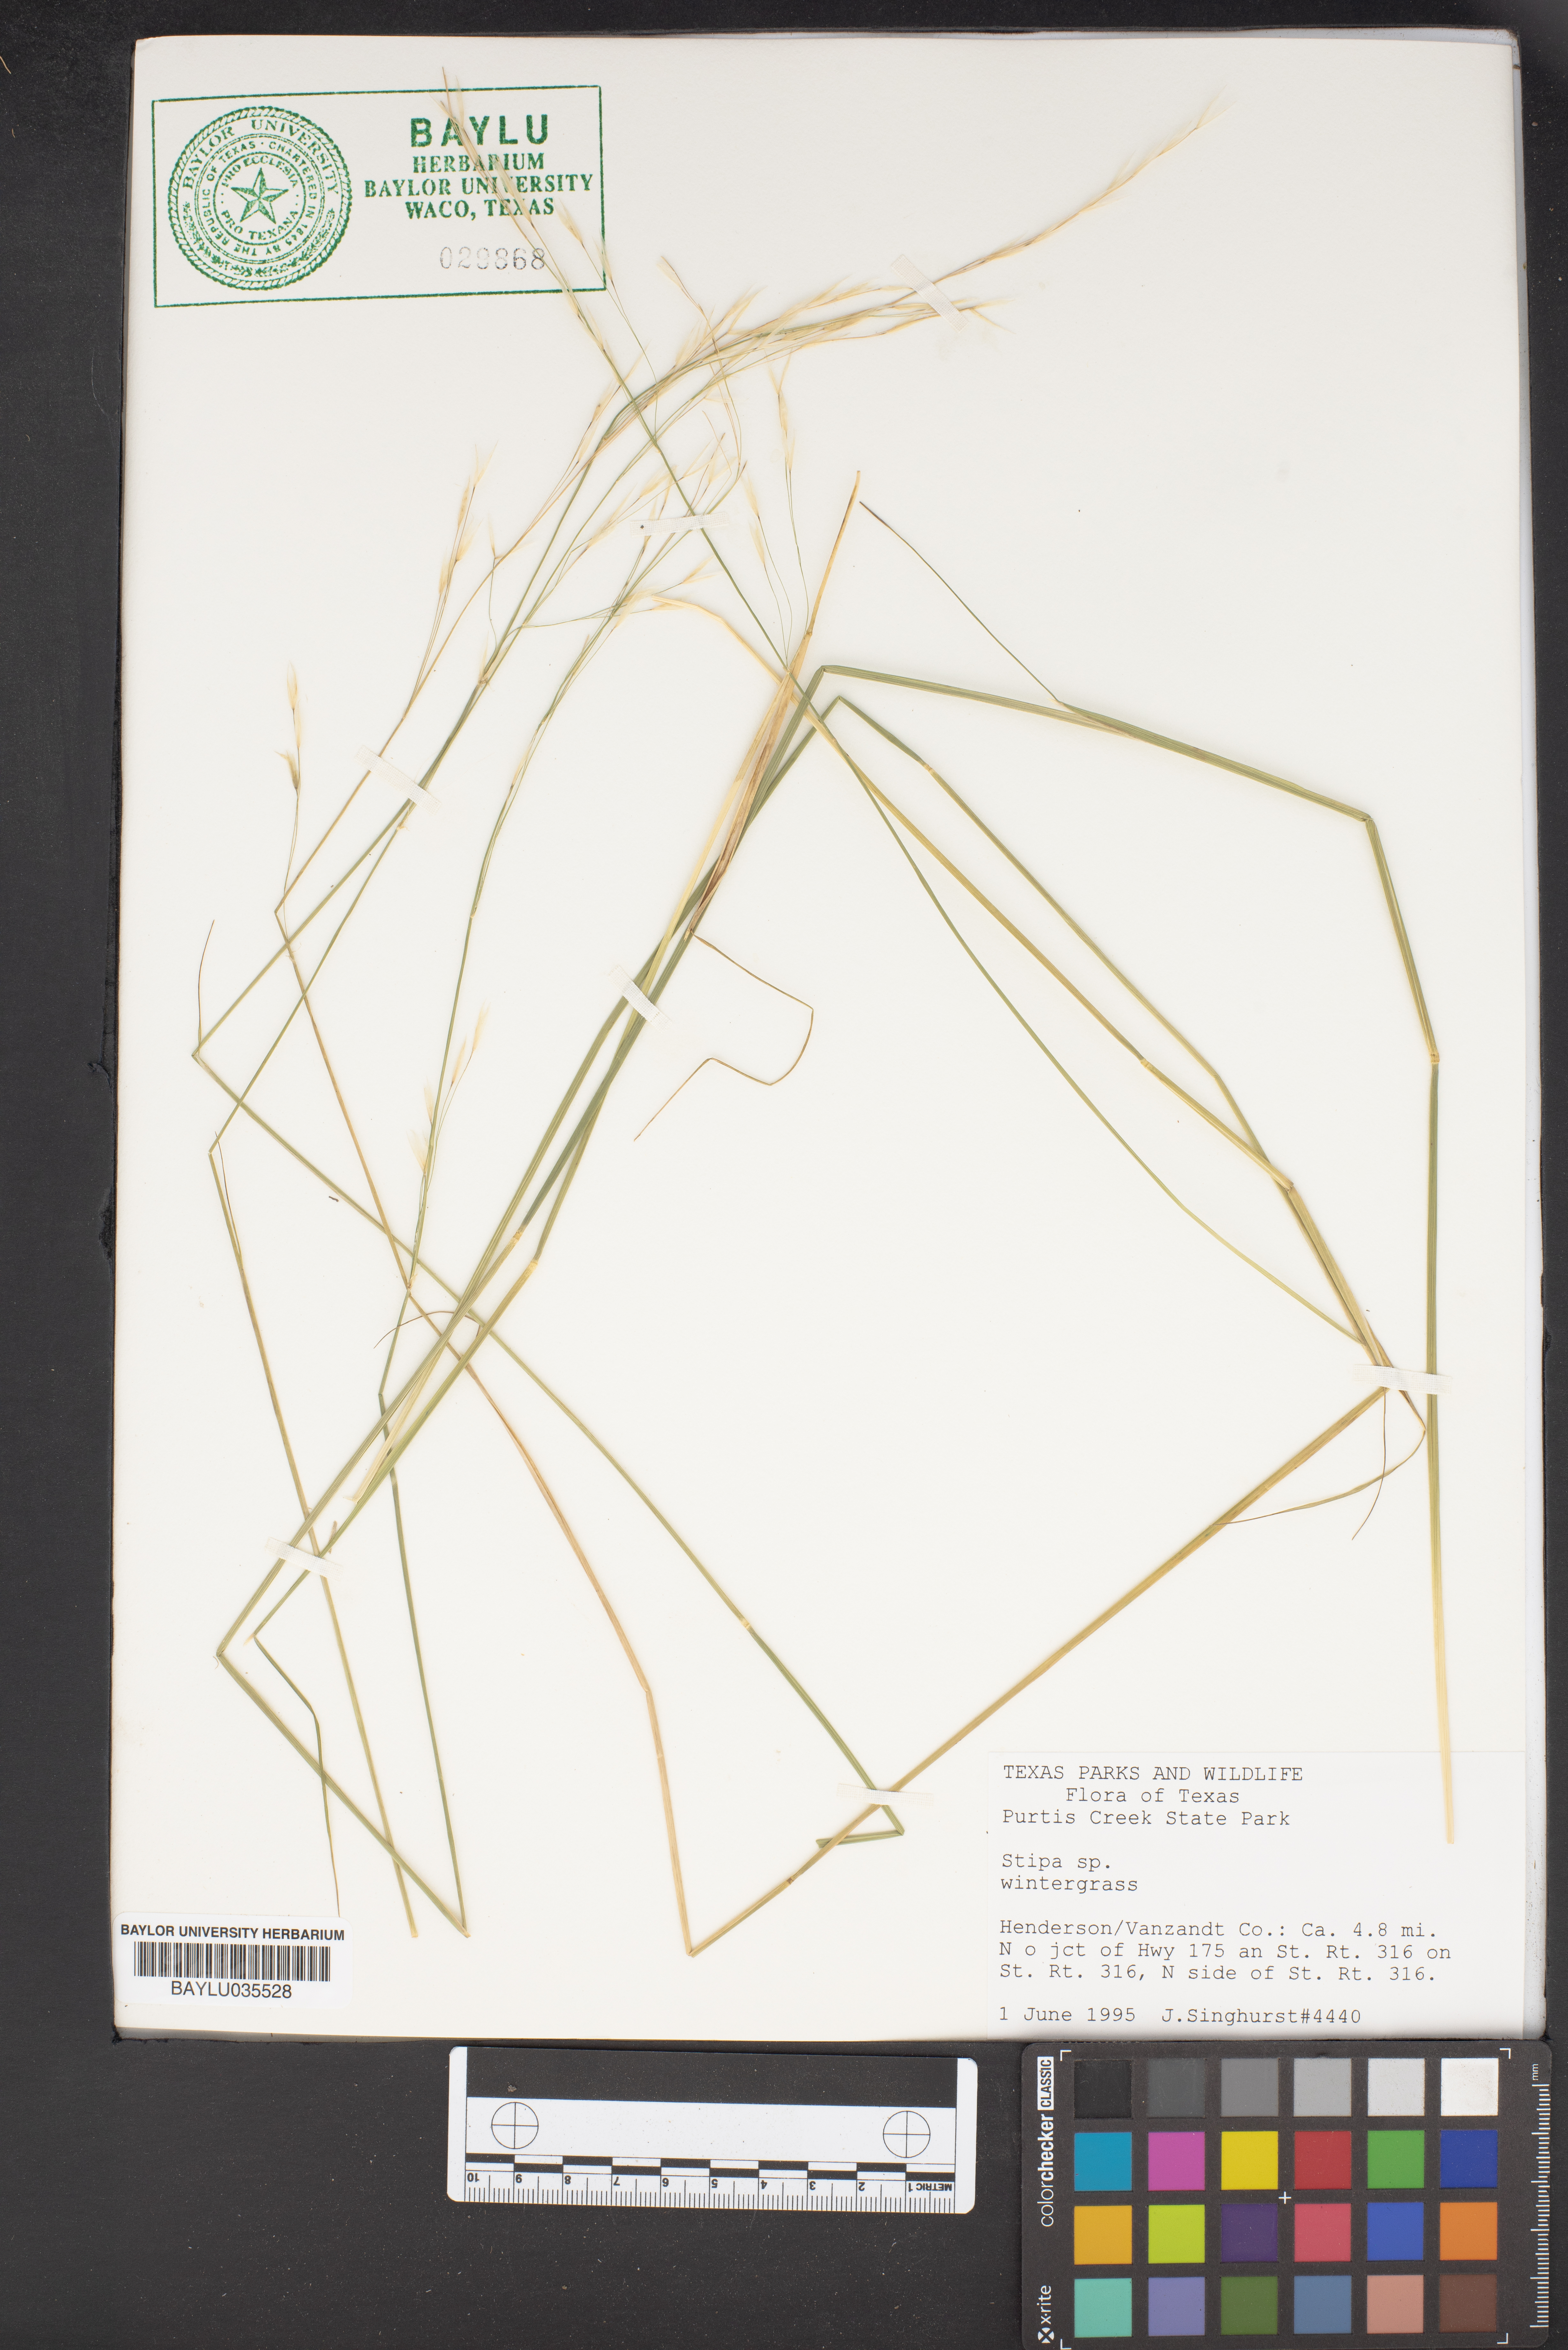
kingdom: Plantae
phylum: Tracheophyta
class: Liliopsida
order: Poales
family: Poaceae
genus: Stipa
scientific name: Stipa
